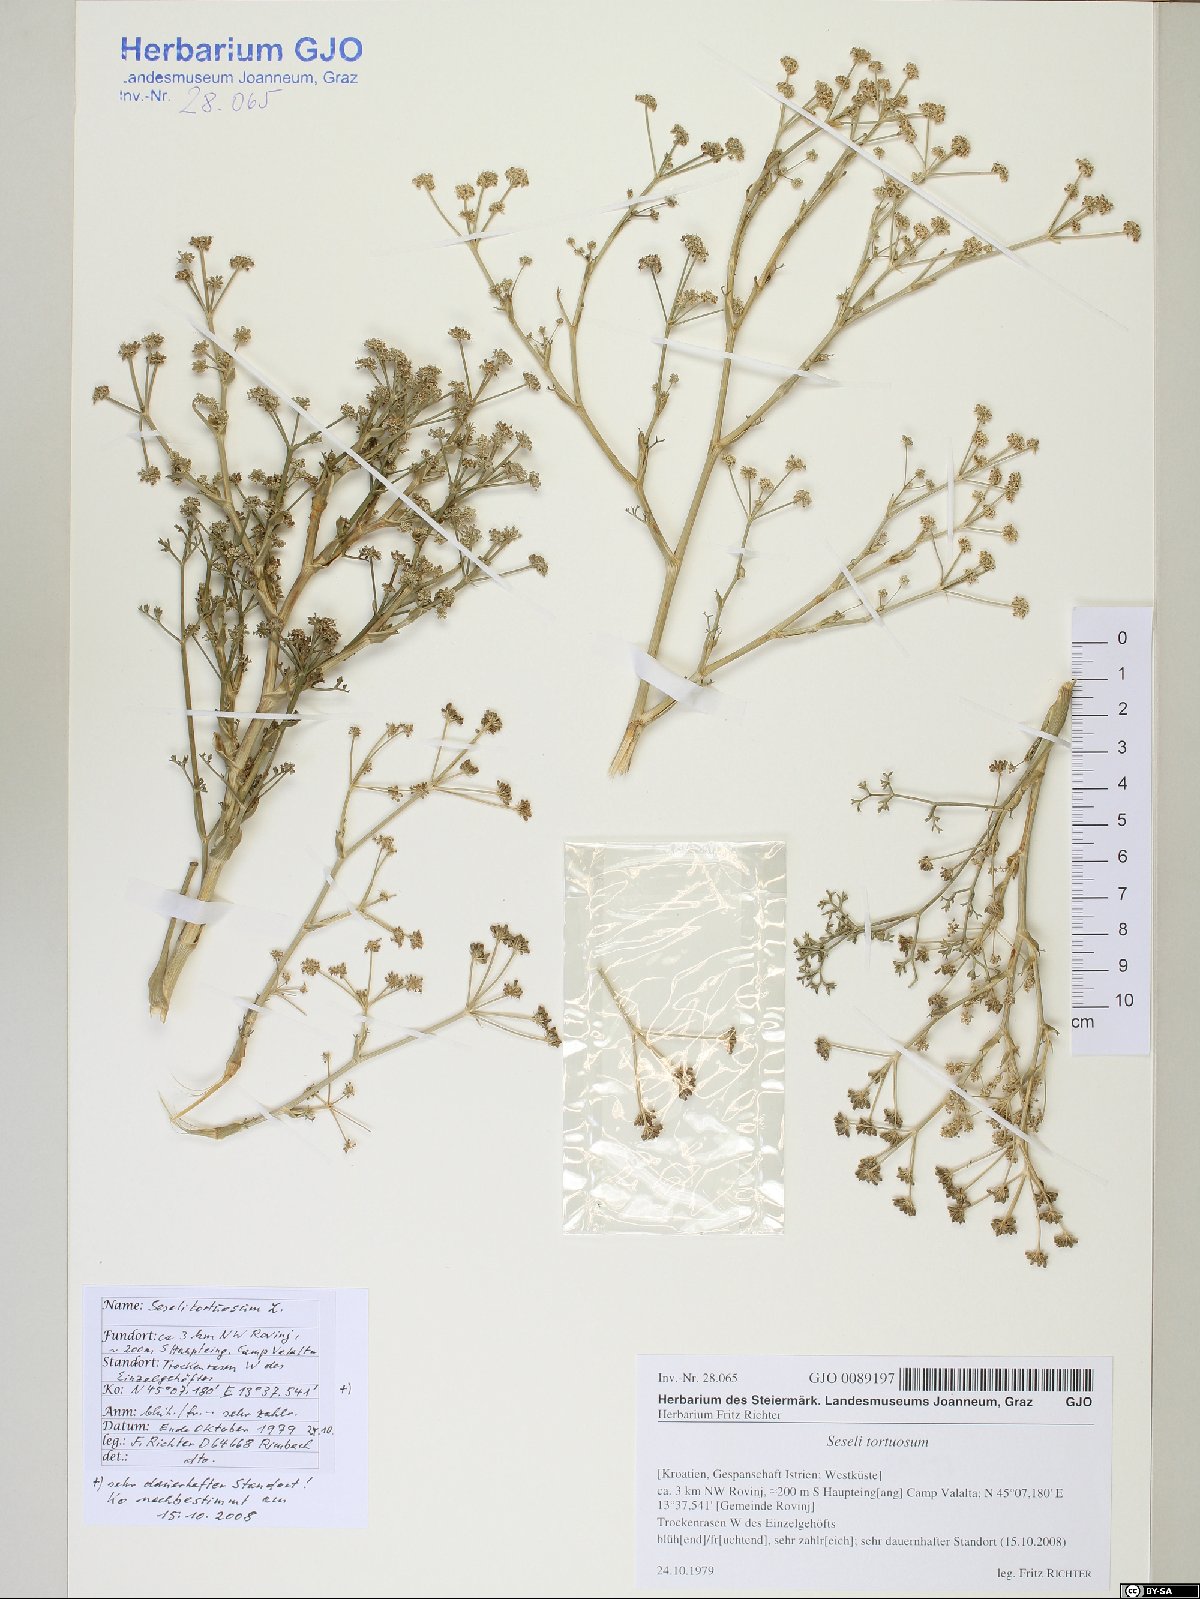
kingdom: Plantae
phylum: Tracheophyta
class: Magnoliopsida
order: Apiales
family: Apiaceae
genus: Seseli
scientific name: Seseli tortuosum
